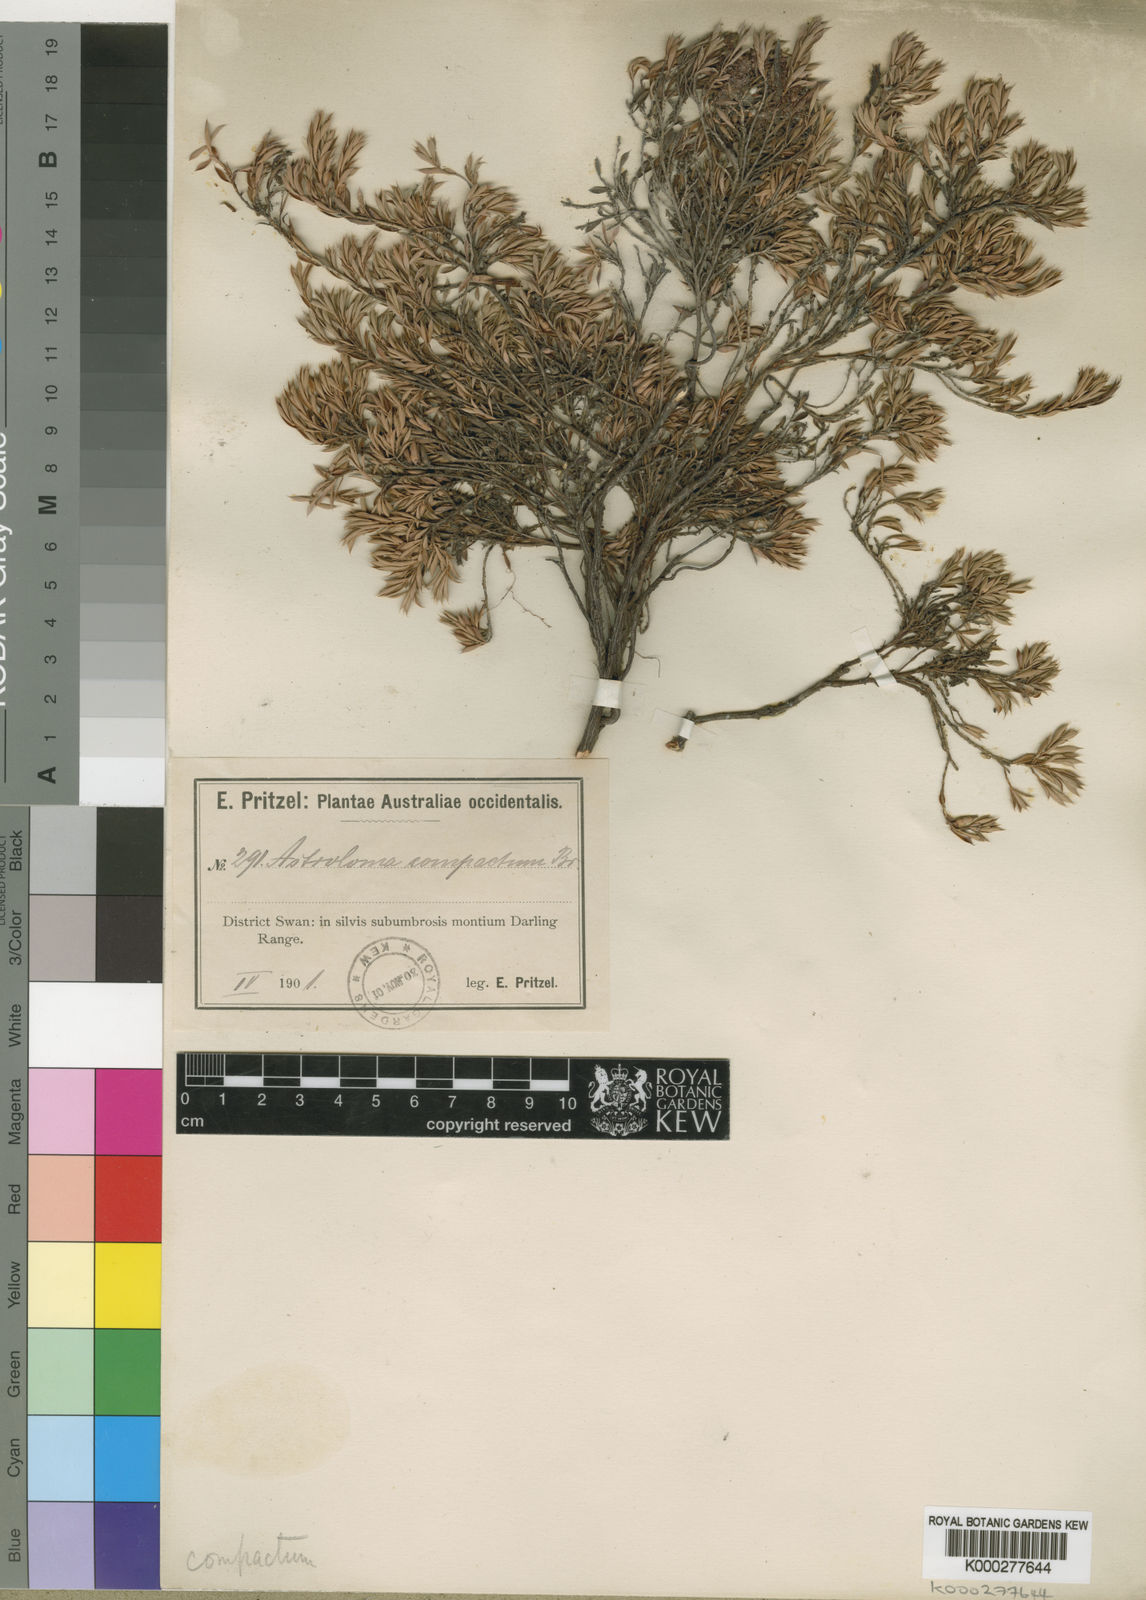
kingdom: Plantae
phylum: Tracheophyta
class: Magnoliopsida
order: Ericales
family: Ericaceae
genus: Styphelia
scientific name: Styphelia compacta
